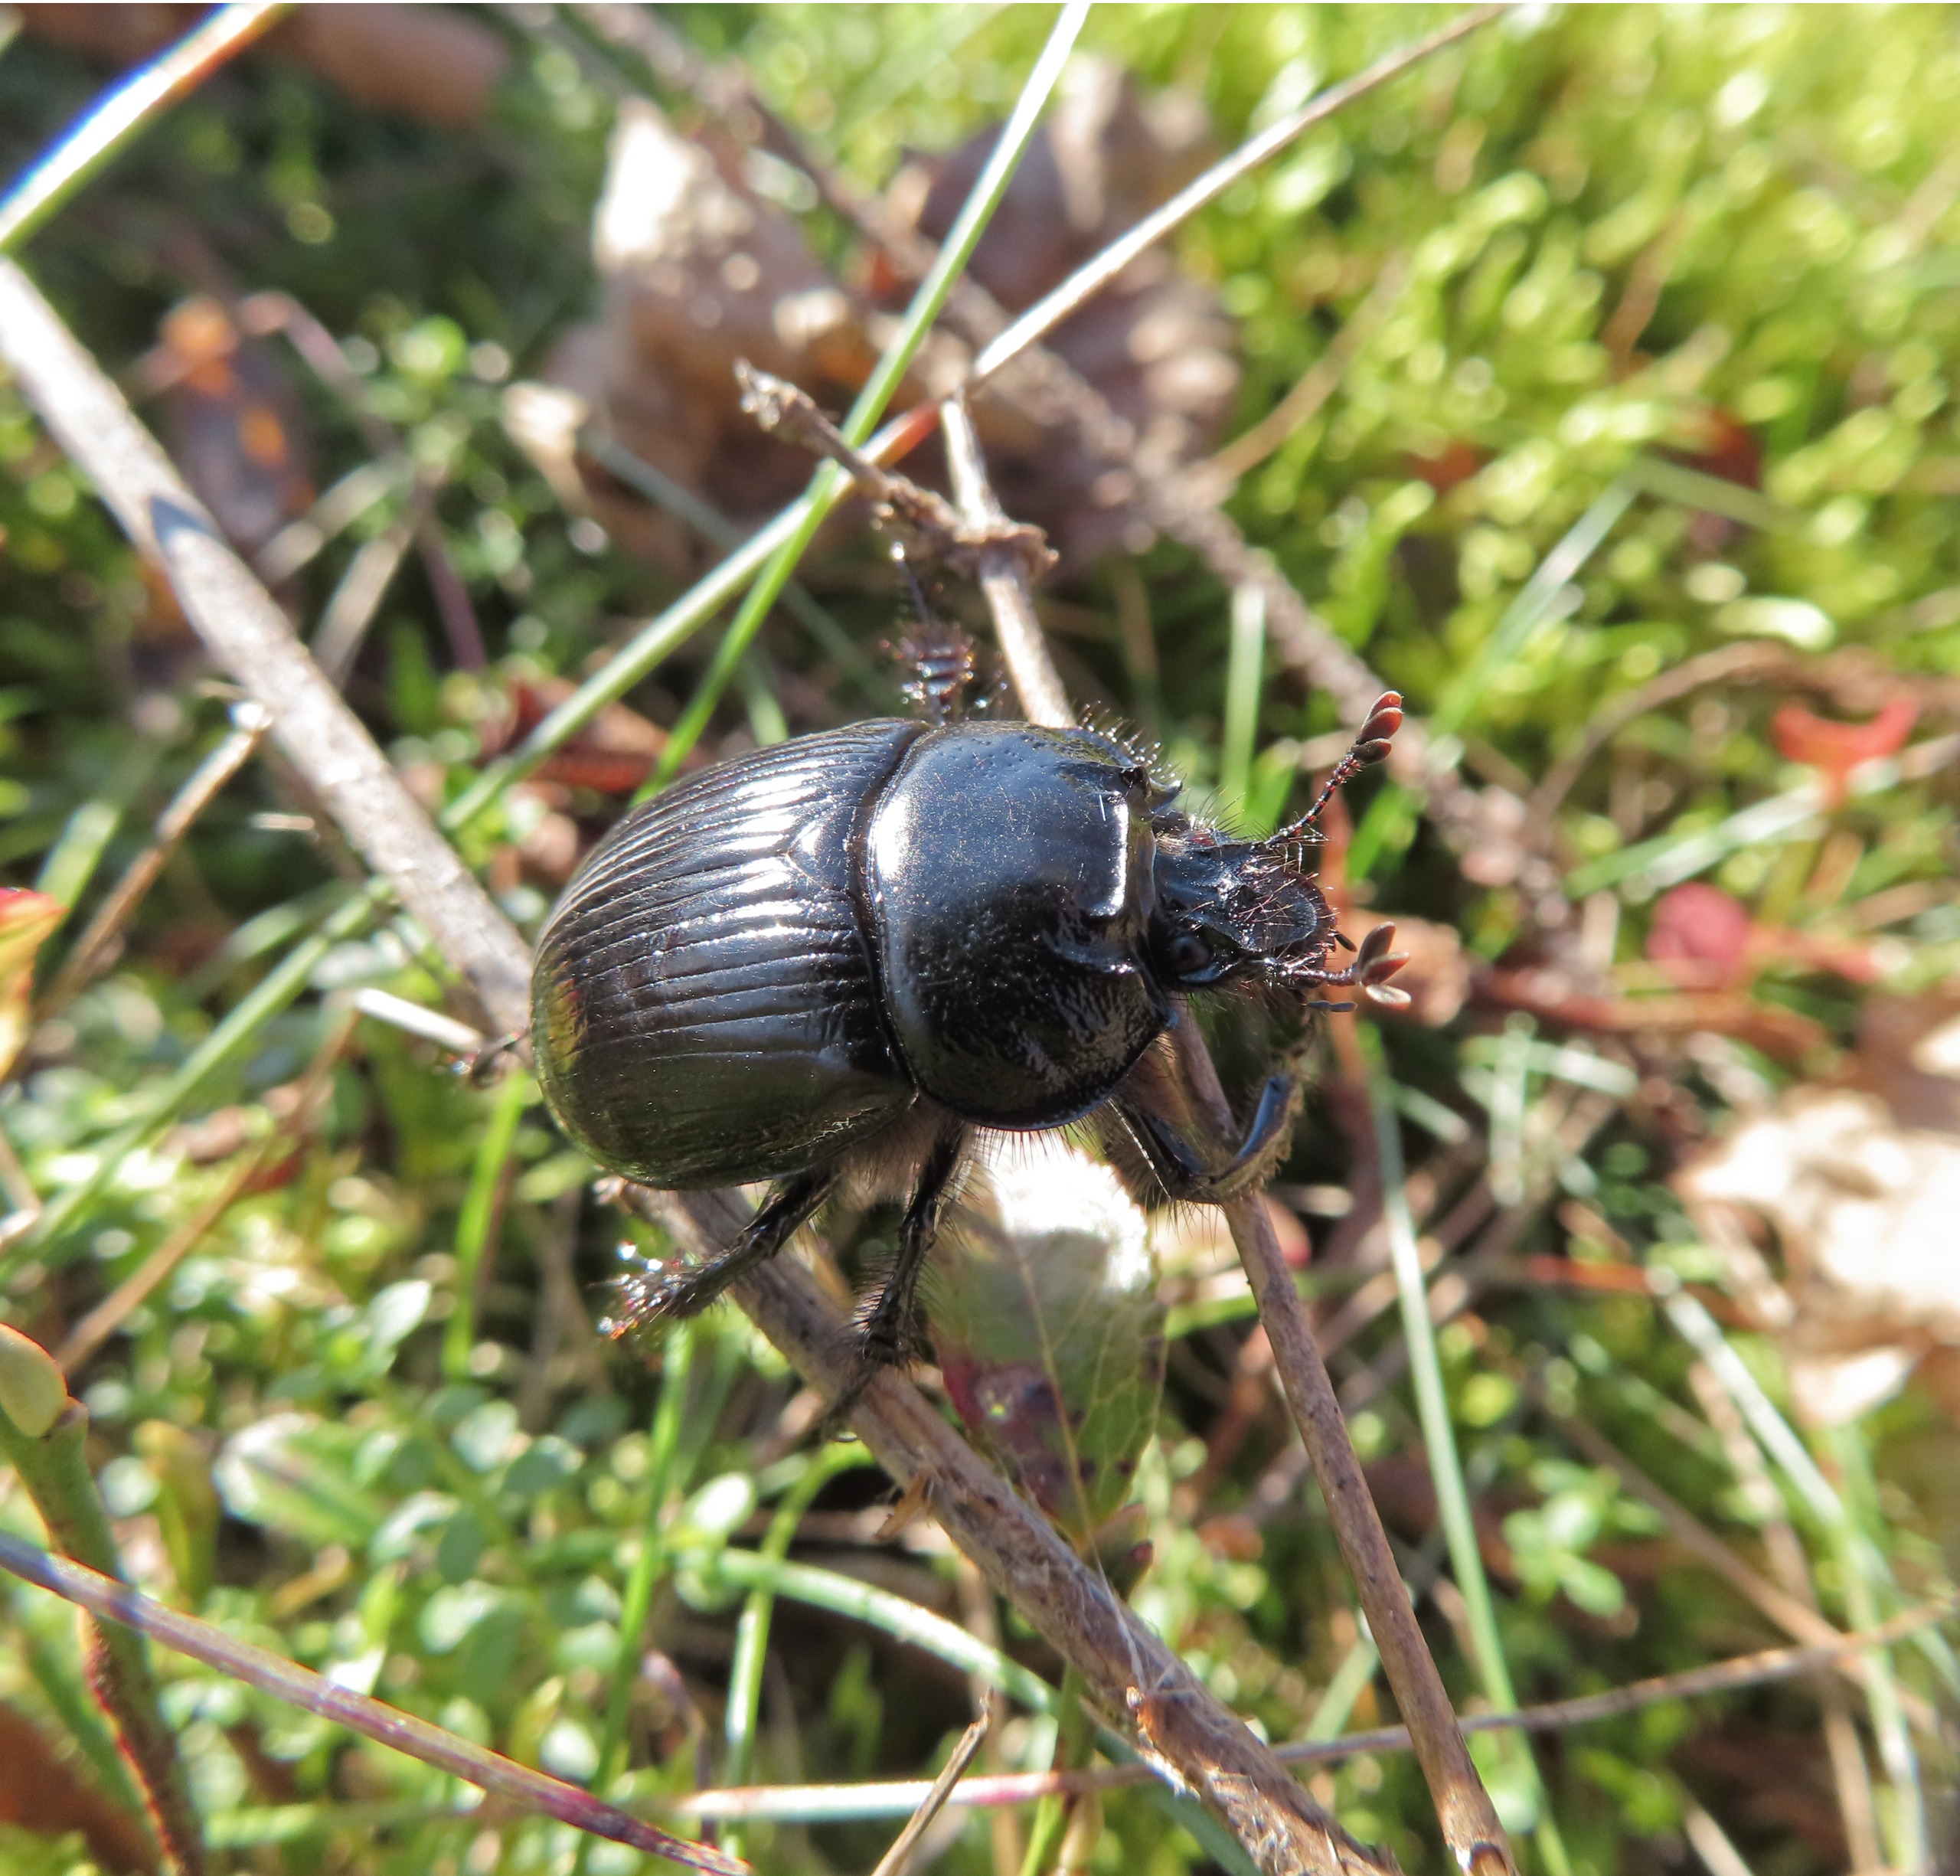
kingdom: Animalia
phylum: Arthropoda
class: Insecta
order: Coleoptera
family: Geotrupidae
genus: Typhaeus
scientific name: Typhaeus typhoeus
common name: Trehornet skarnbasse
